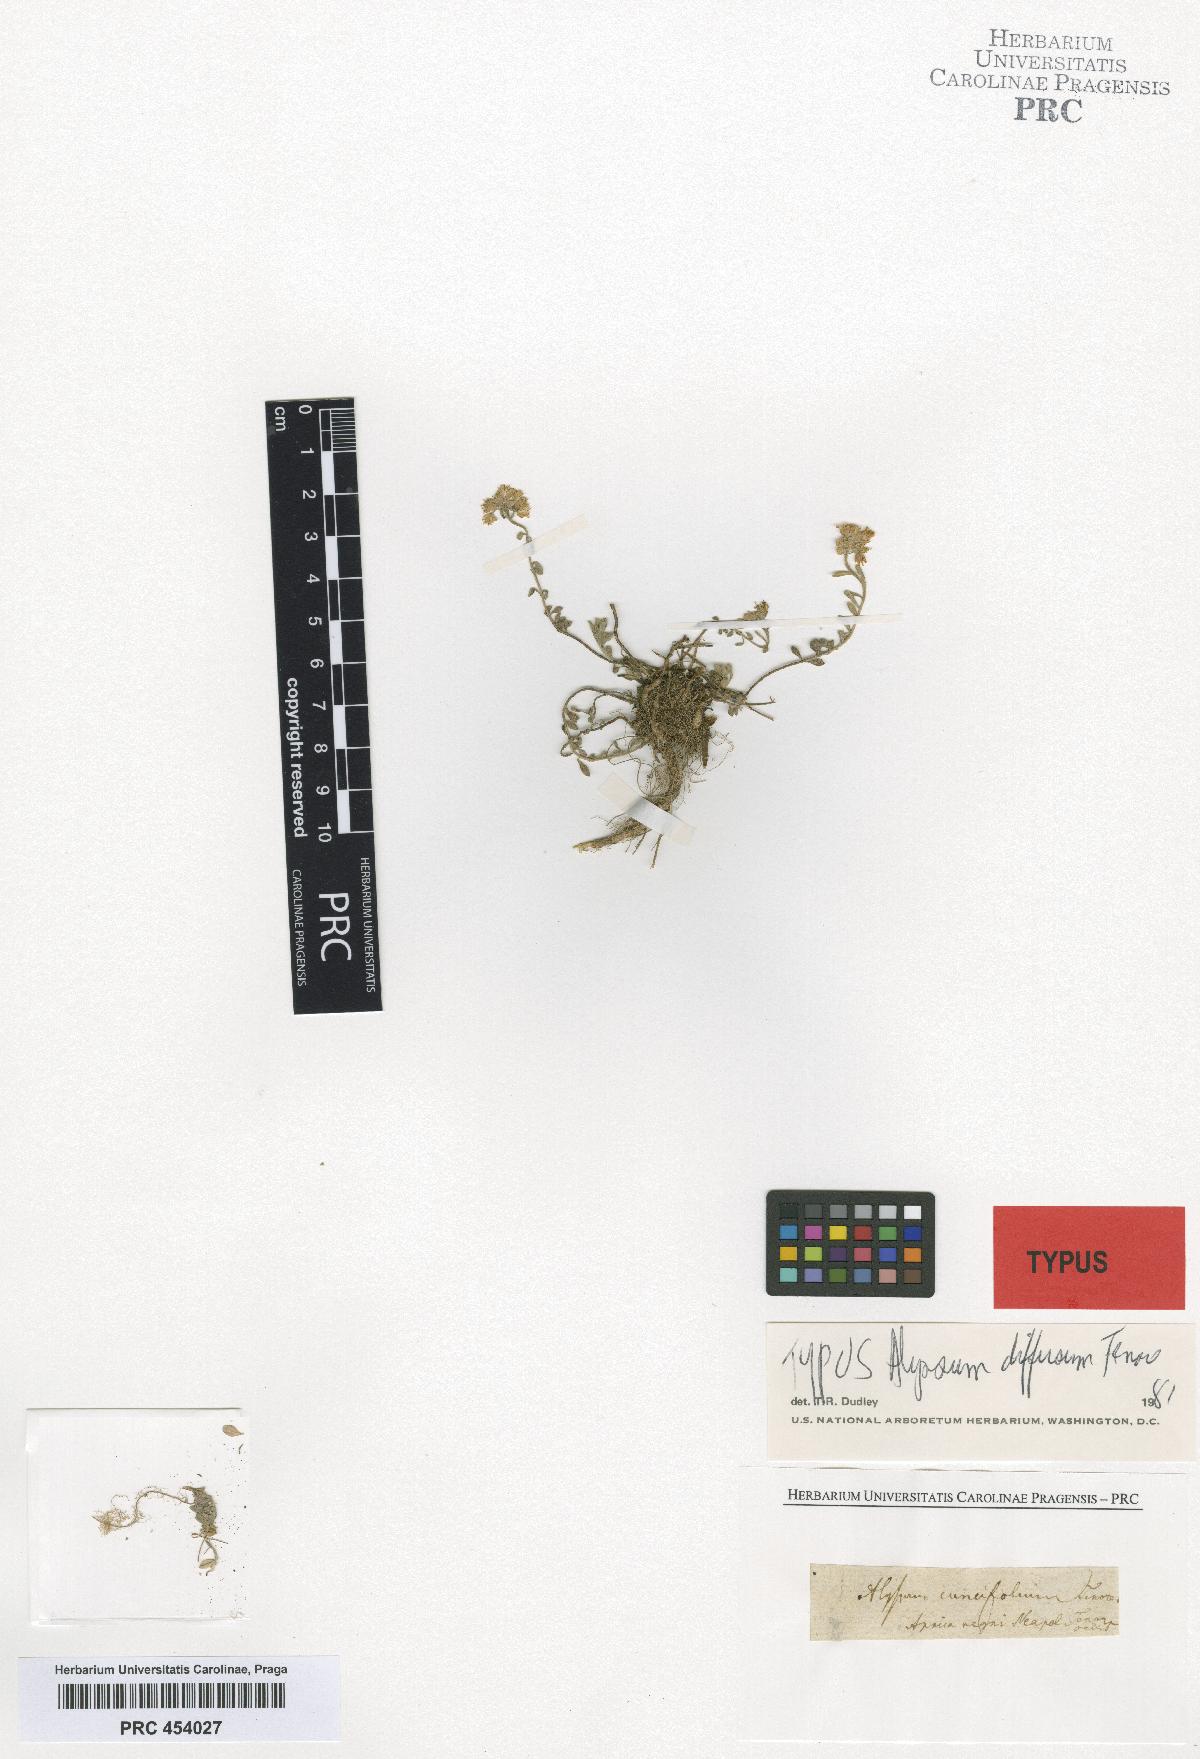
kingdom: Plantae
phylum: Tracheophyta
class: Magnoliopsida
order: Brassicales
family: Brassicaceae
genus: Alyssum
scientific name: Alyssum diffusum
